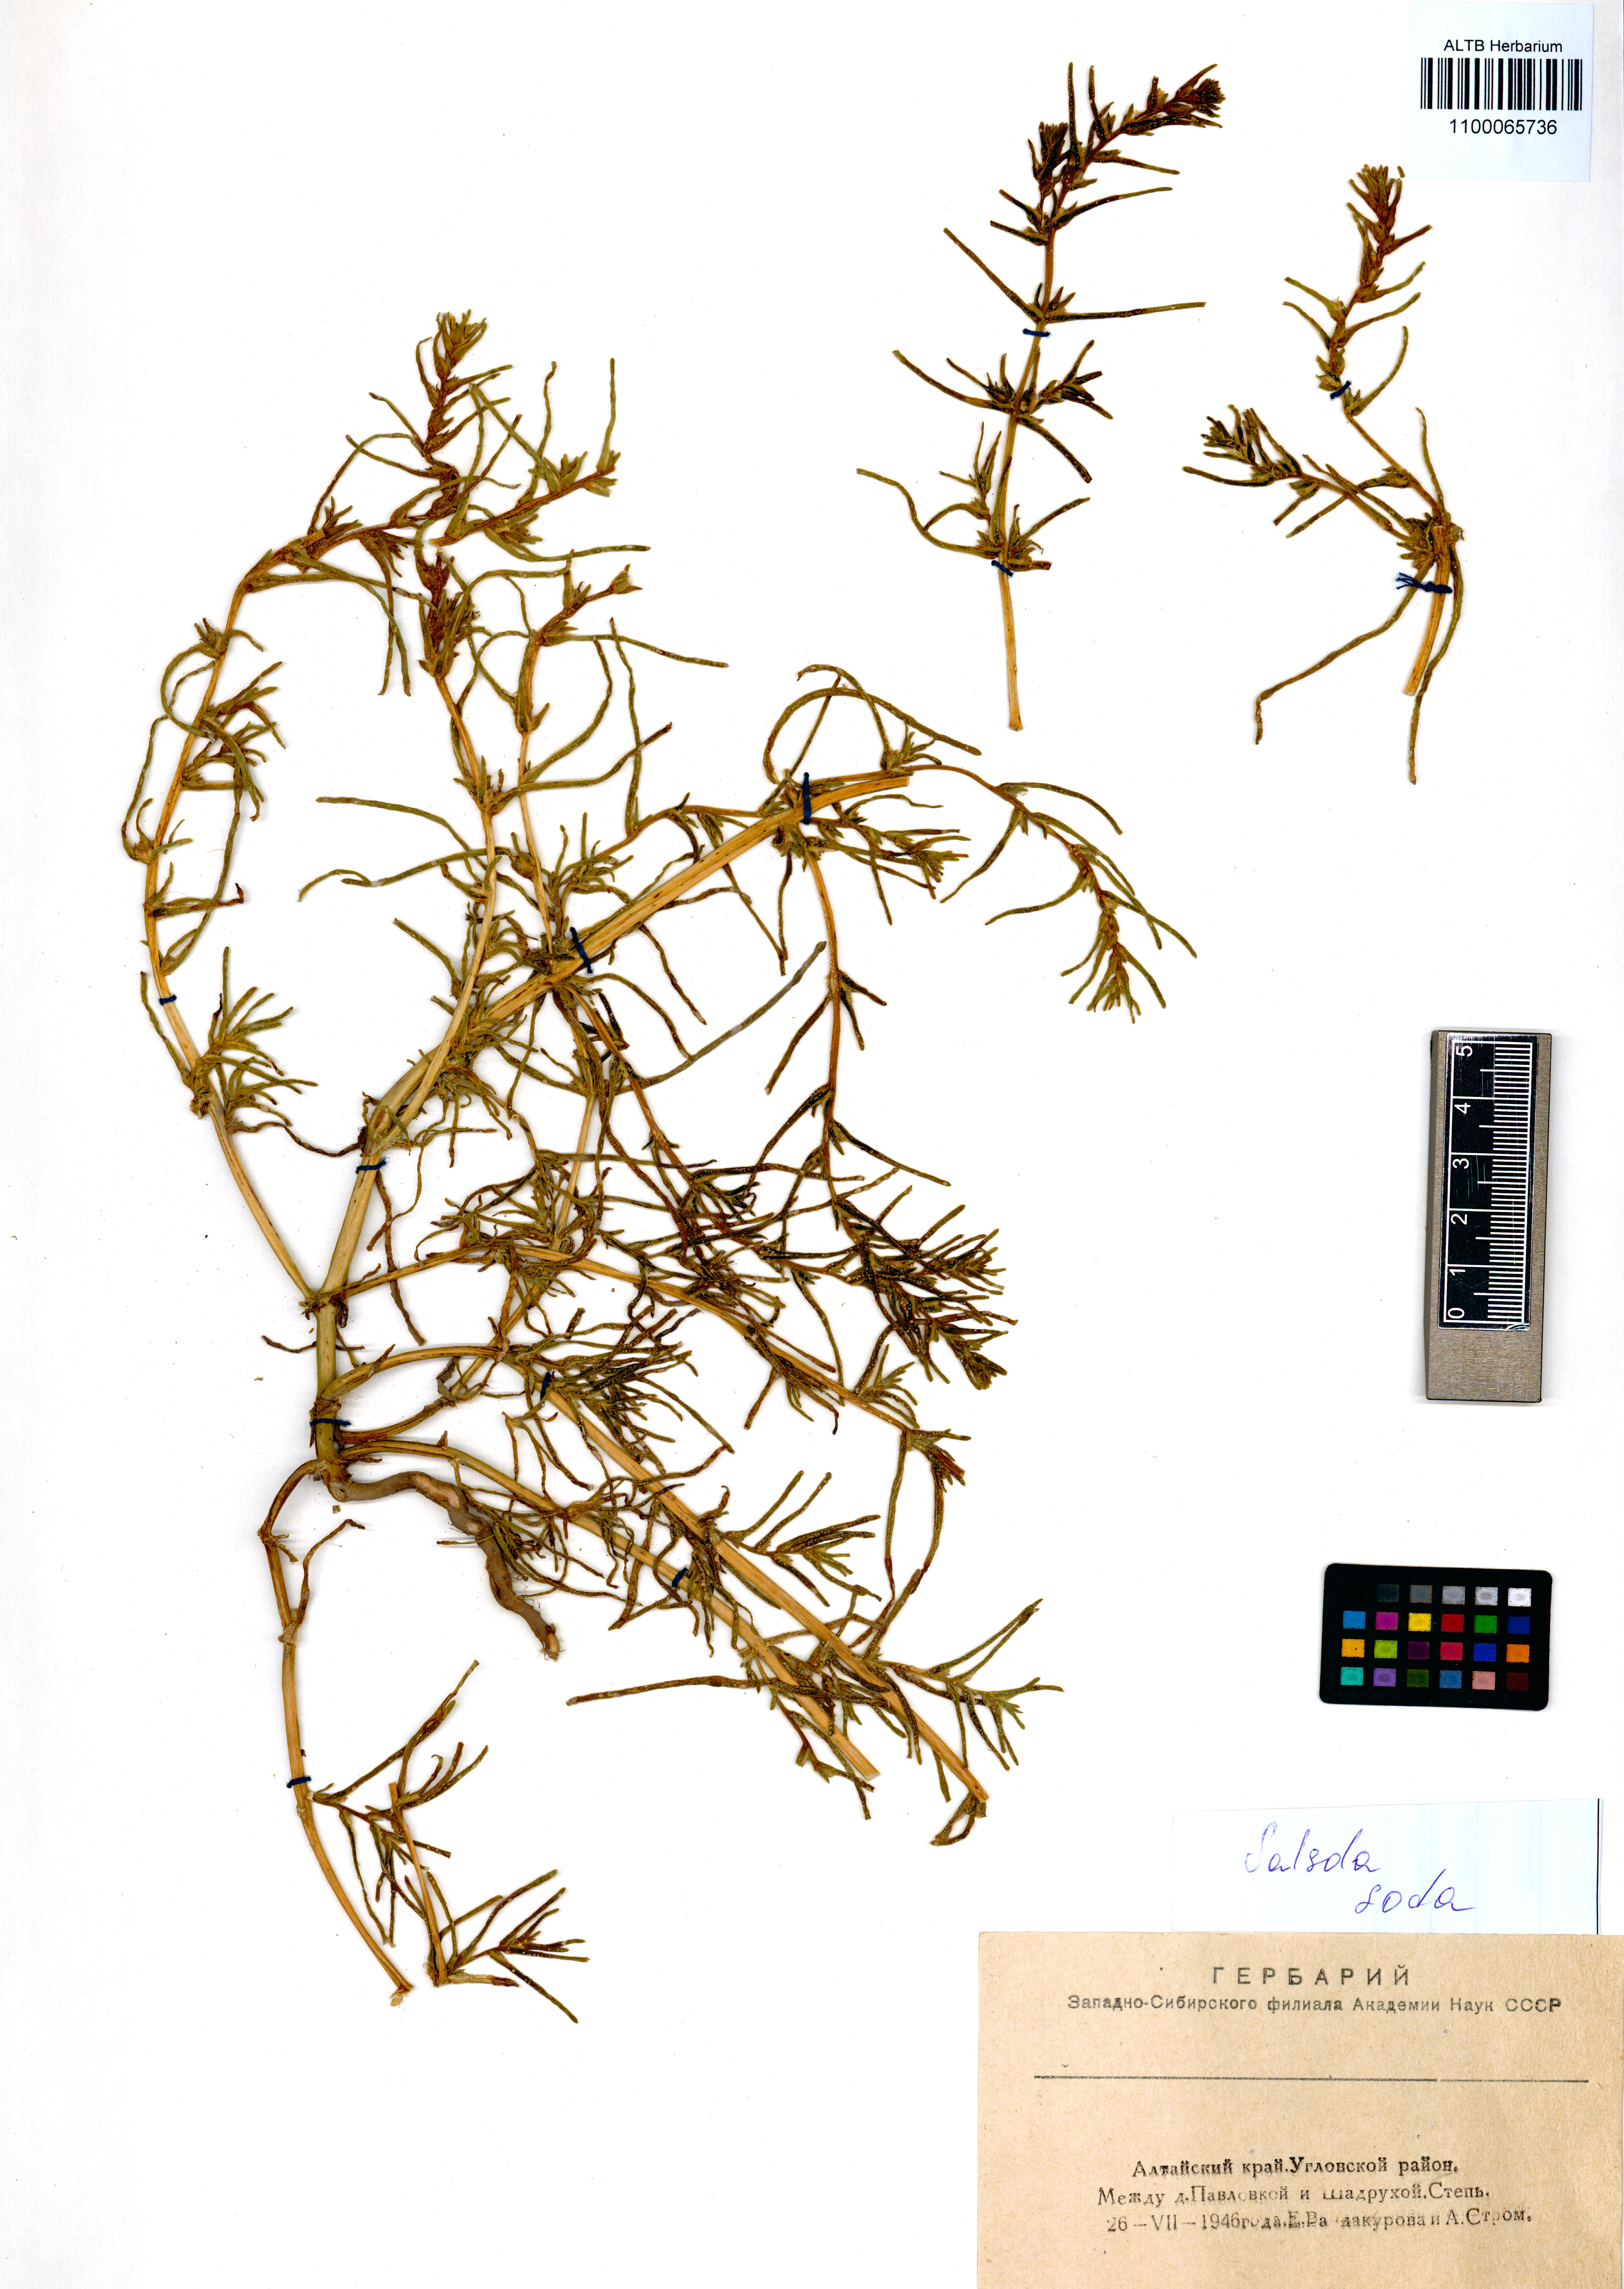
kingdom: Plantae
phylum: Tracheophyta
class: Magnoliopsida
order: Caryophyllales
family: Amaranthaceae
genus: Soda
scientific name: Soda inermis
